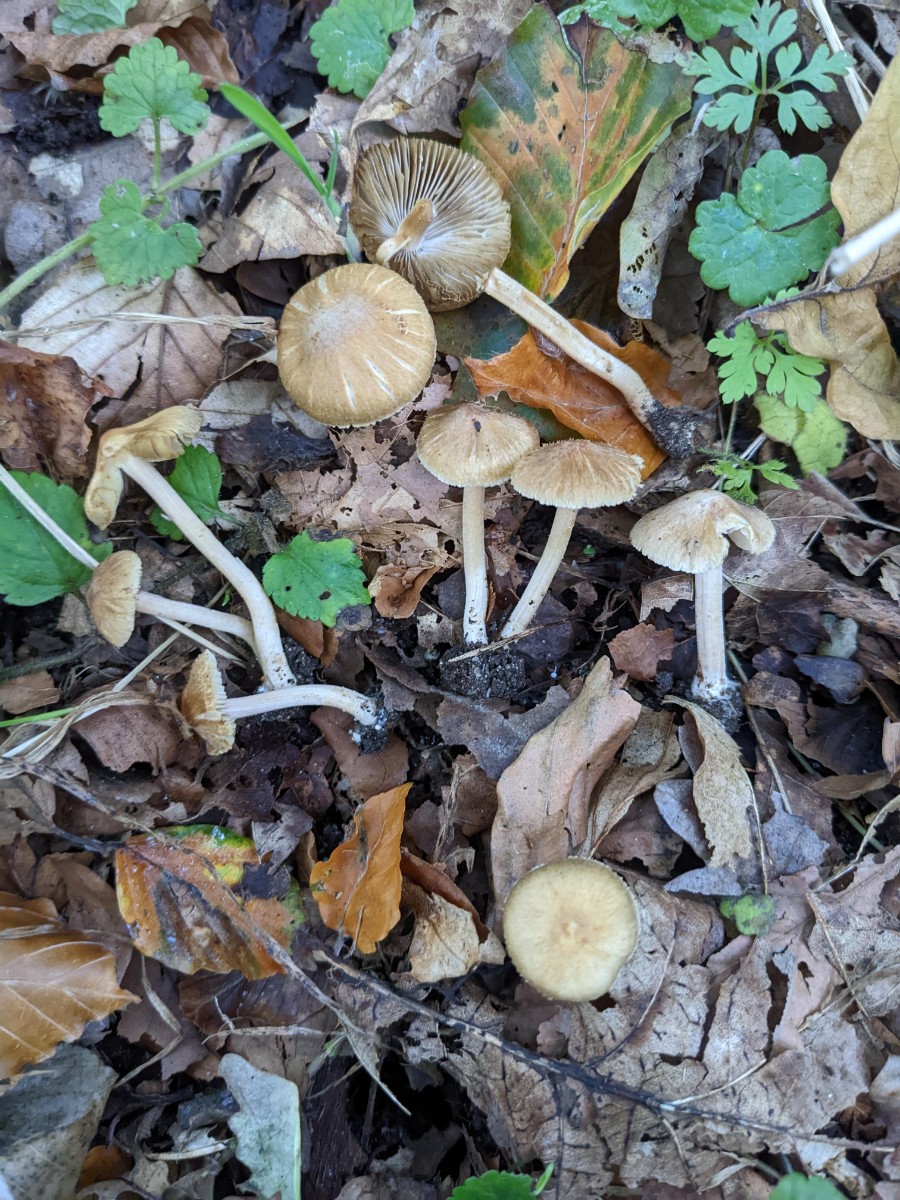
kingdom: Fungi
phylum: Basidiomycota
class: Agaricomycetes
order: Agaricales
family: Inocybaceae
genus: Inocybe
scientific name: Inocybe hirtella
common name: mandel-trævlhat
